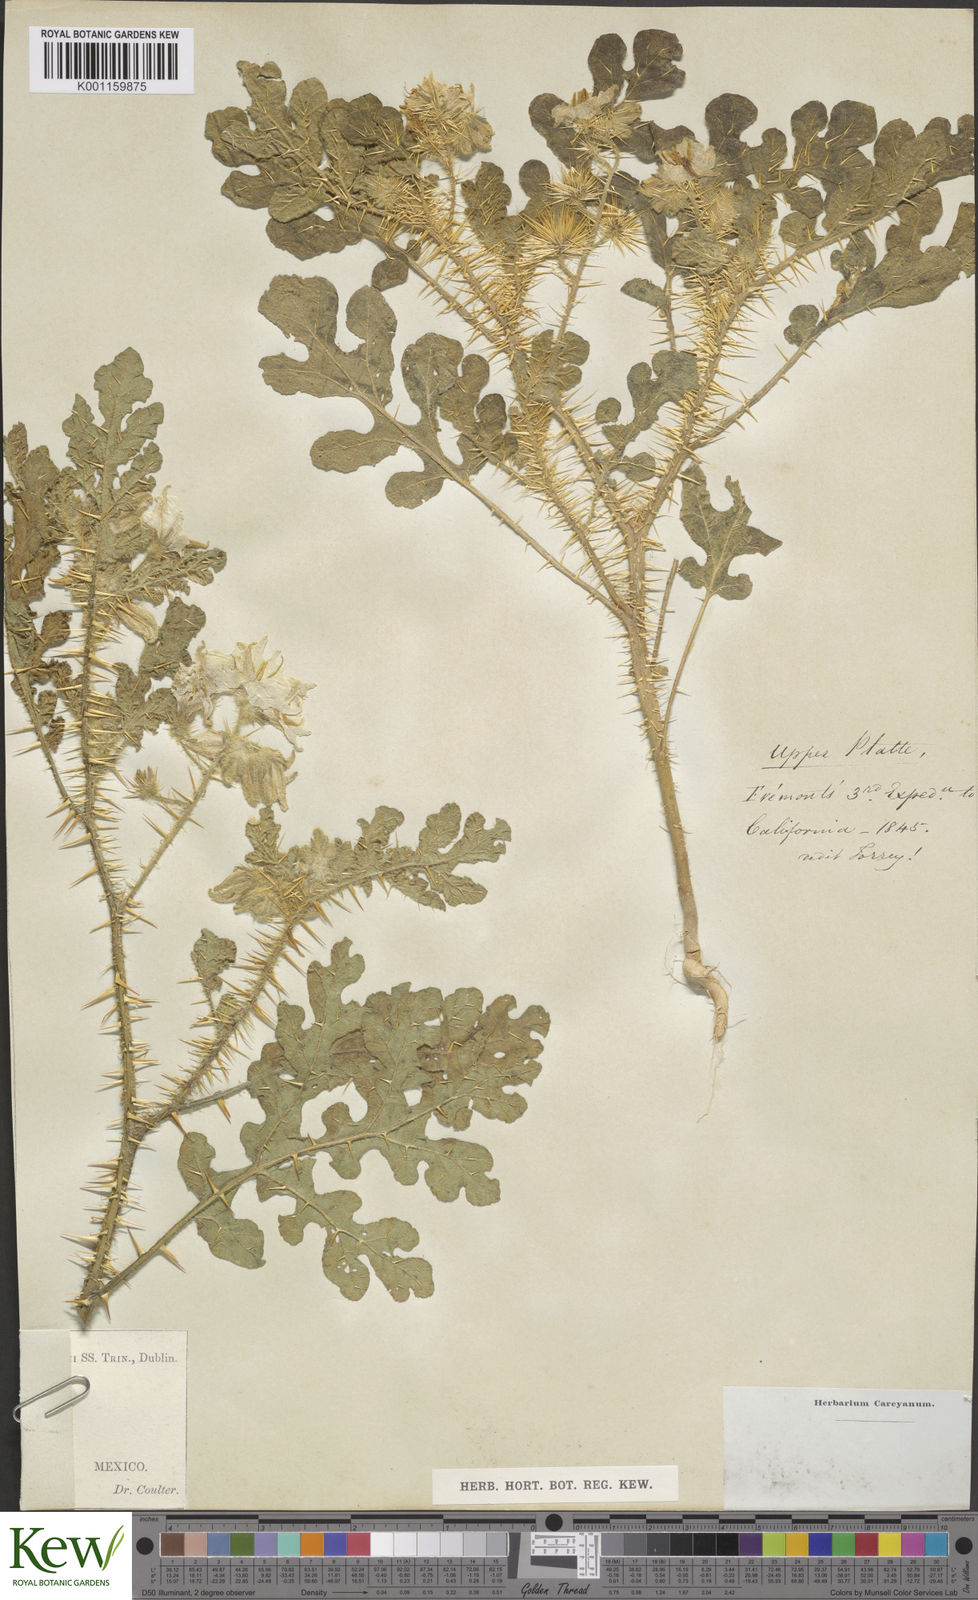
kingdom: Plantae
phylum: Tracheophyta
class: Magnoliopsida
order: Solanales
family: Solanaceae
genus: Solanum
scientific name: Solanum angustifolium
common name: Buffalobur nightshade
